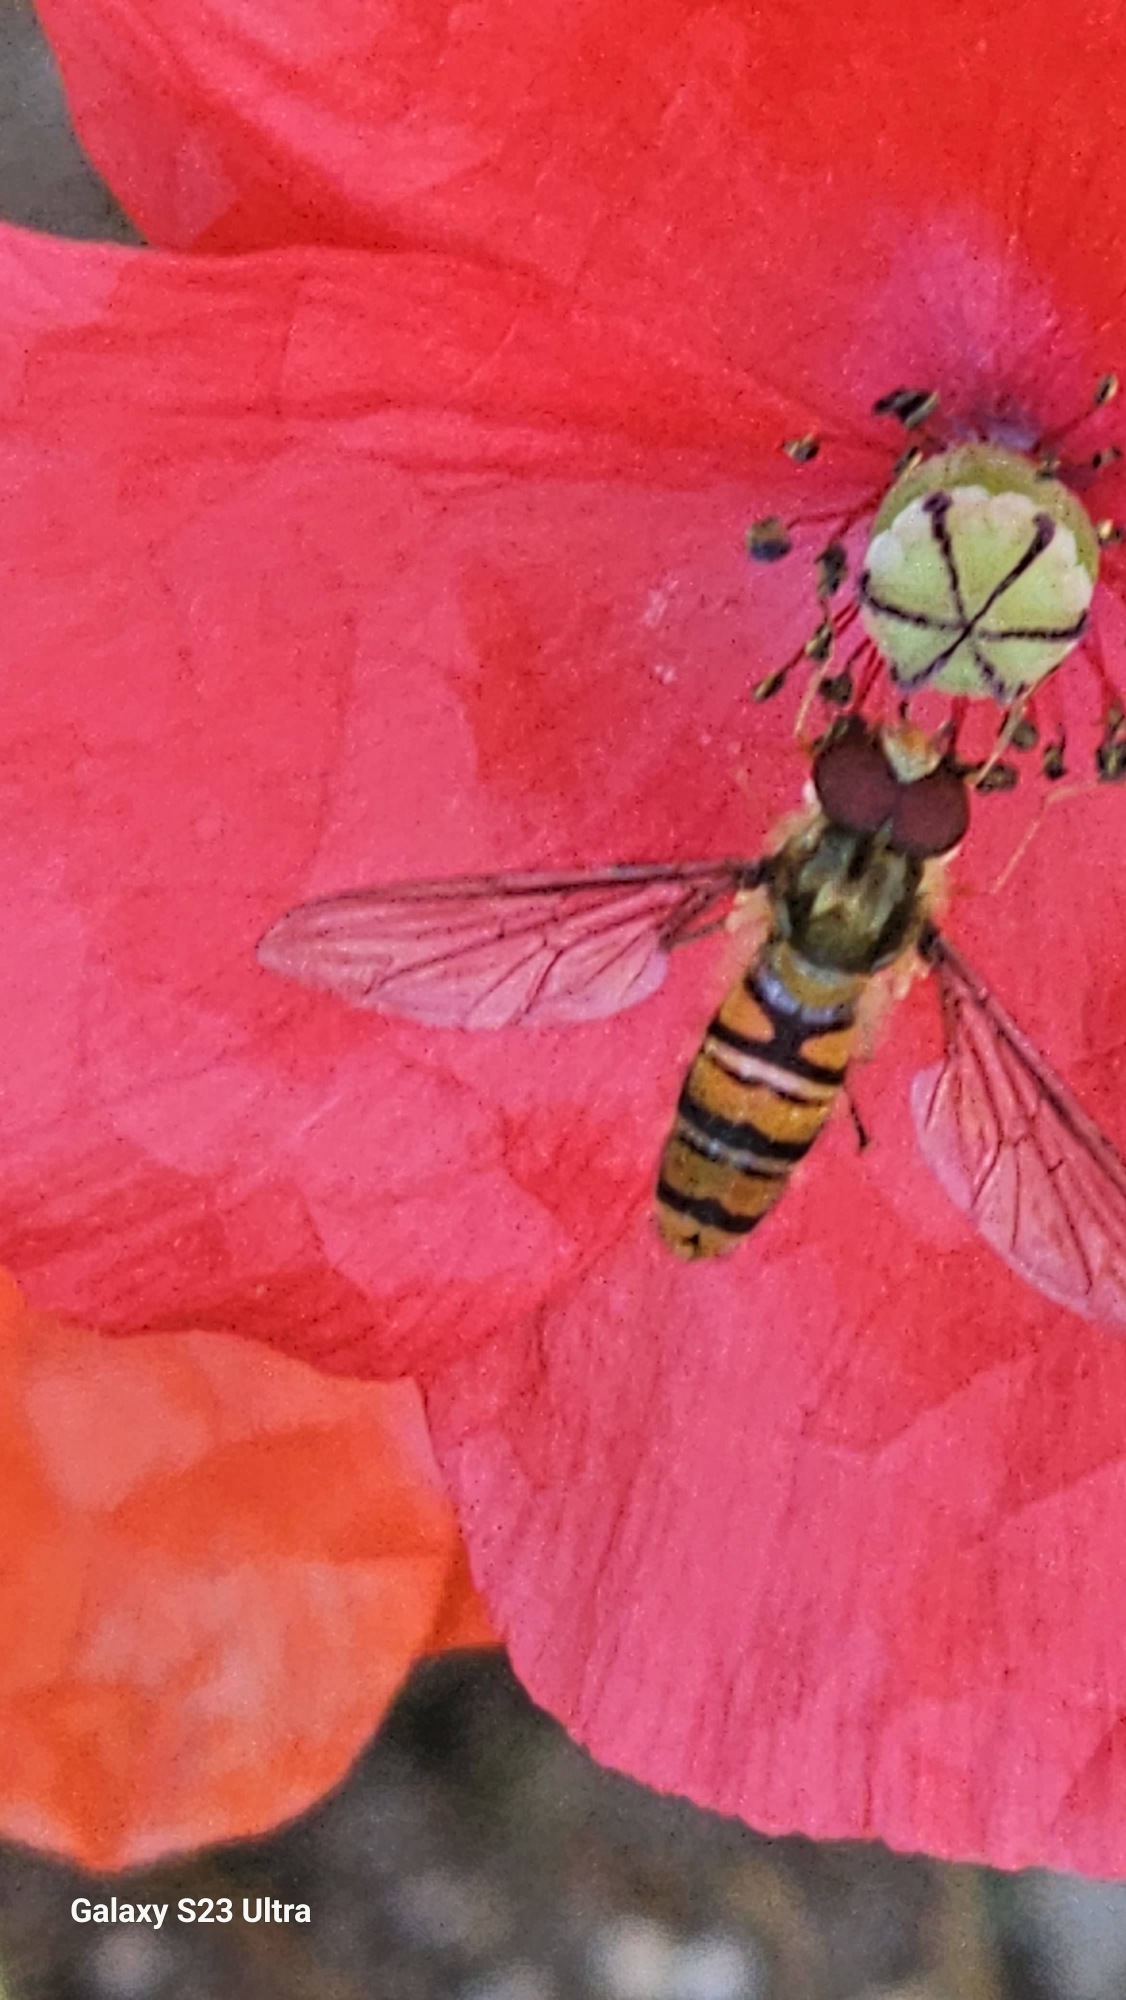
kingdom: Animalia
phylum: Arthropoda
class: Insecta
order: Diptera
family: Syrphidae
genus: Episyrphus
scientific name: Episyrphus balteatus
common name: Dobbeltbåndet svirreflue
